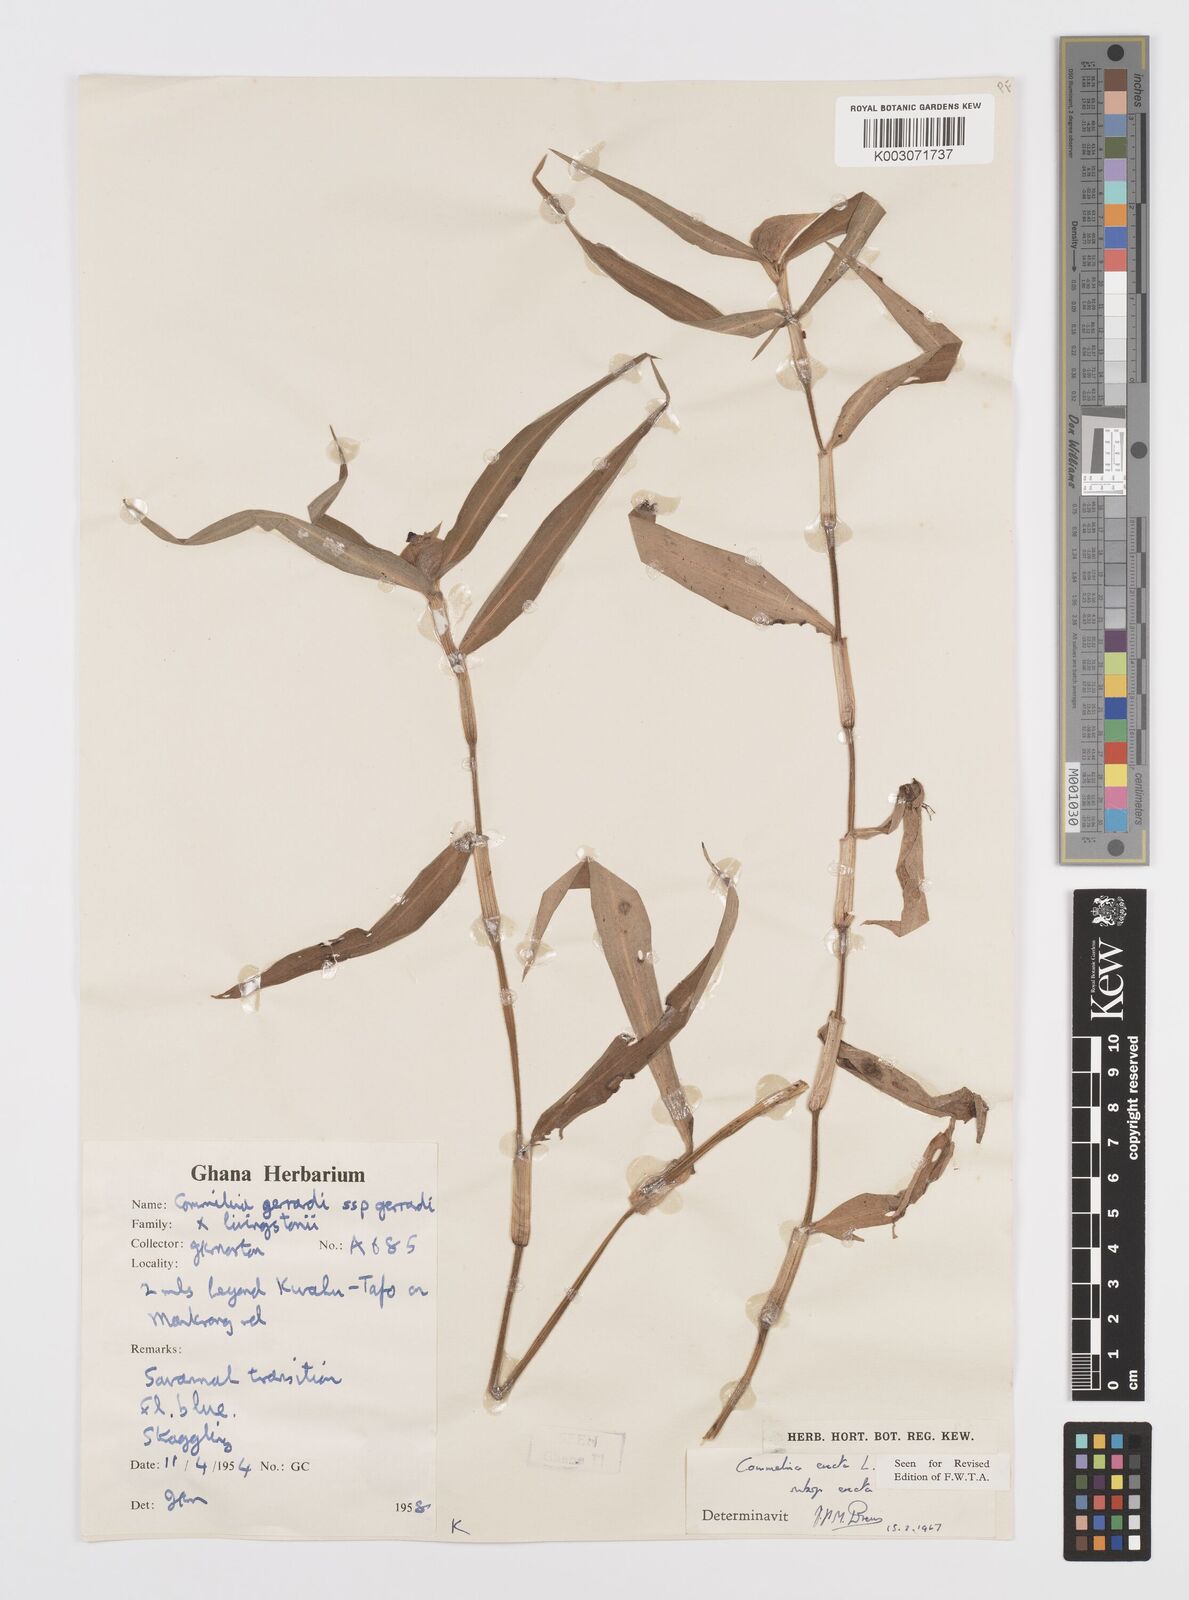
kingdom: Plantae
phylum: Tracheophyta
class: Liliopsida
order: Commelinales
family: Commelinaceae
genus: Commelina
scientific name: Commelina erecta
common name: Blousel blommetjie
